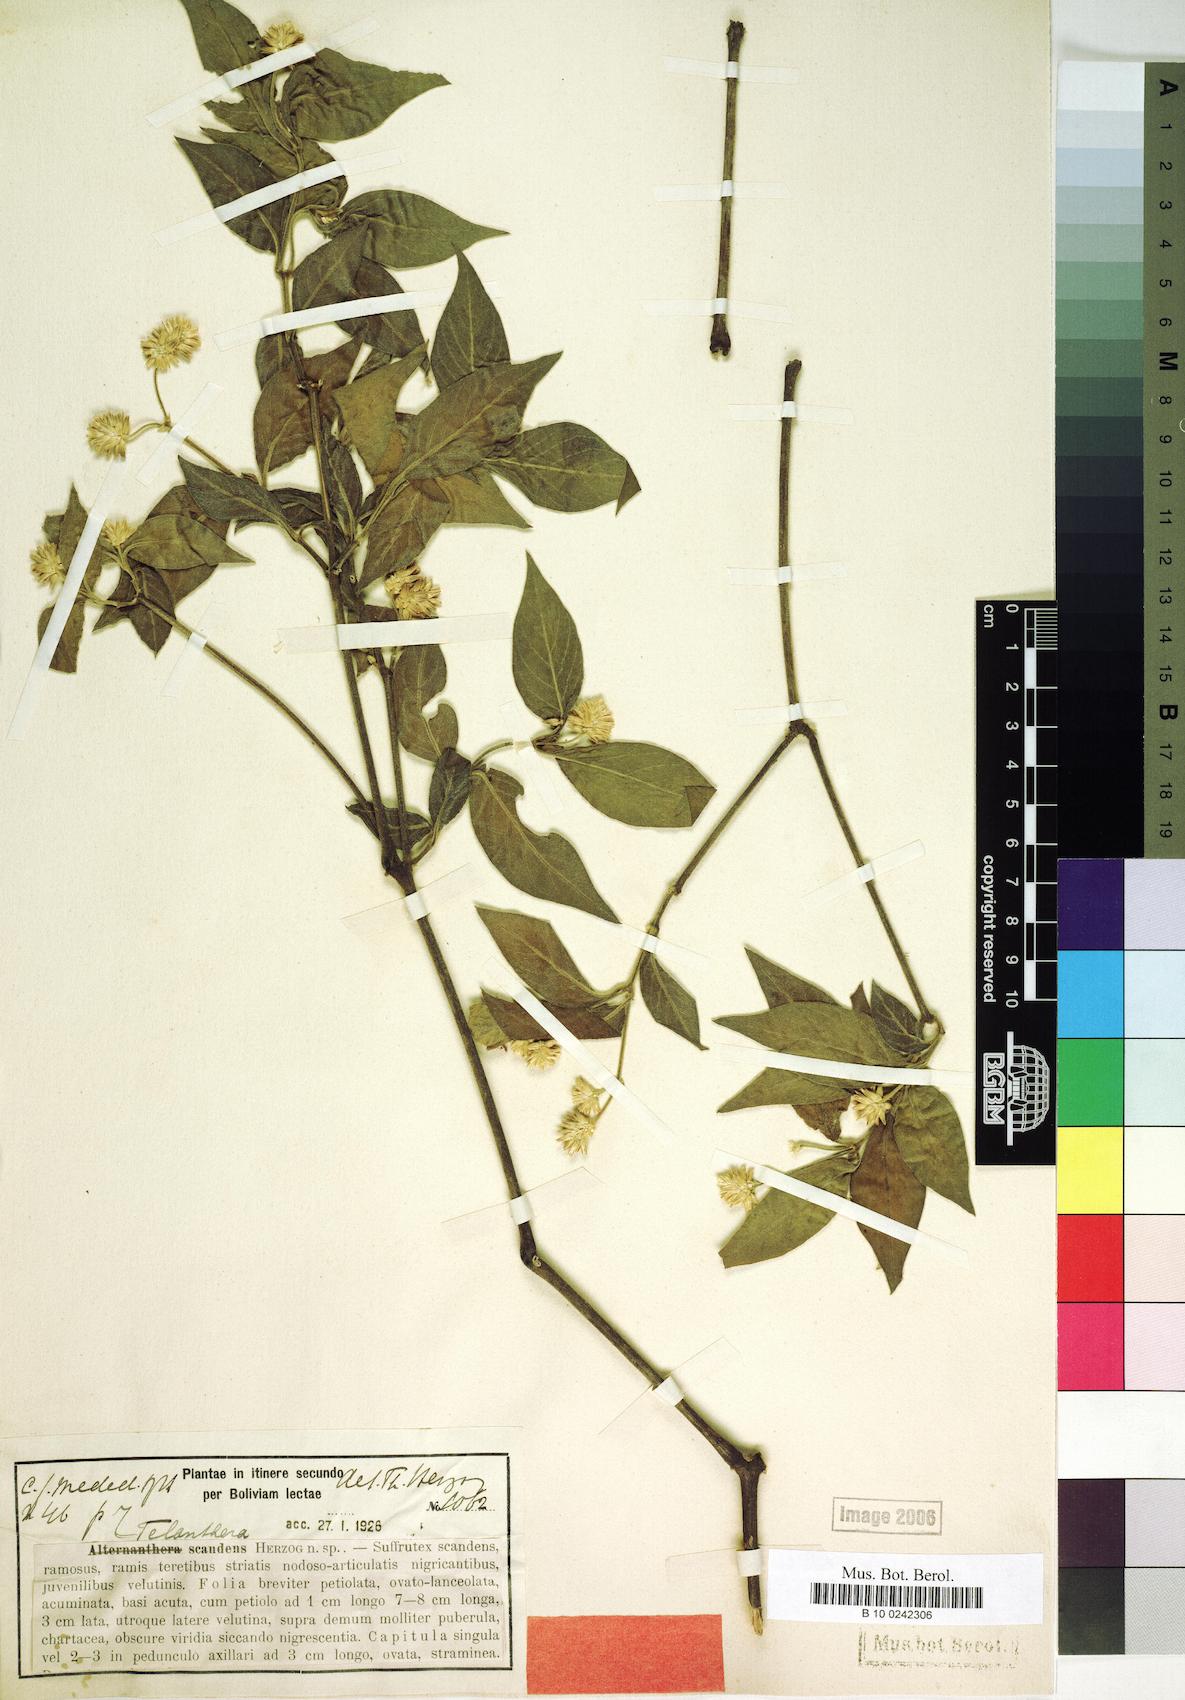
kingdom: Plantae
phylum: Tracheophyta
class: Magnoliopsida
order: Caryophyllales
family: Amaranthaceae
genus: Alternanthera
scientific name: Alternanthera scandens
